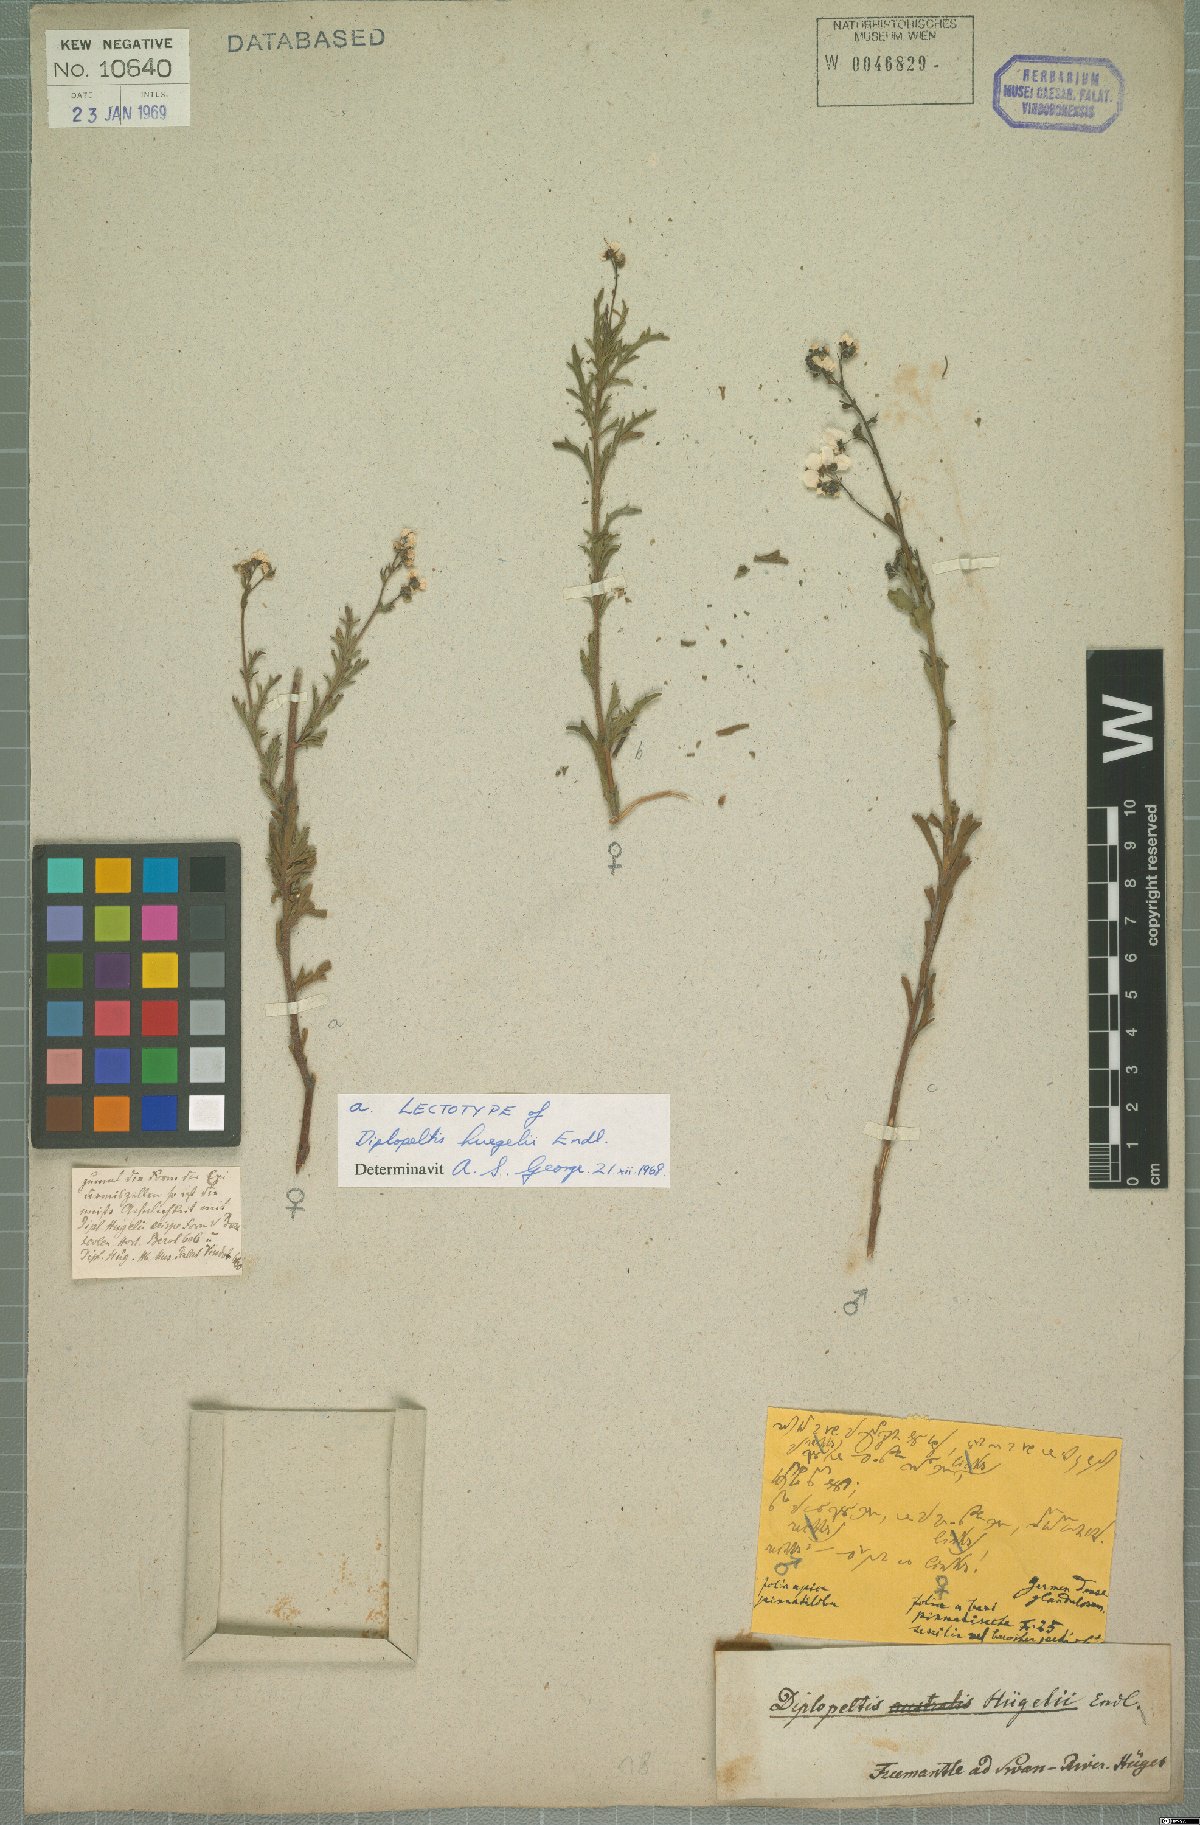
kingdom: Plantae
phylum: Tracheophyta
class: Magnoliopsida
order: Sapindales
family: Sapindaceae
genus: Diplopeltis
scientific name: Diplopeltis huegelii
